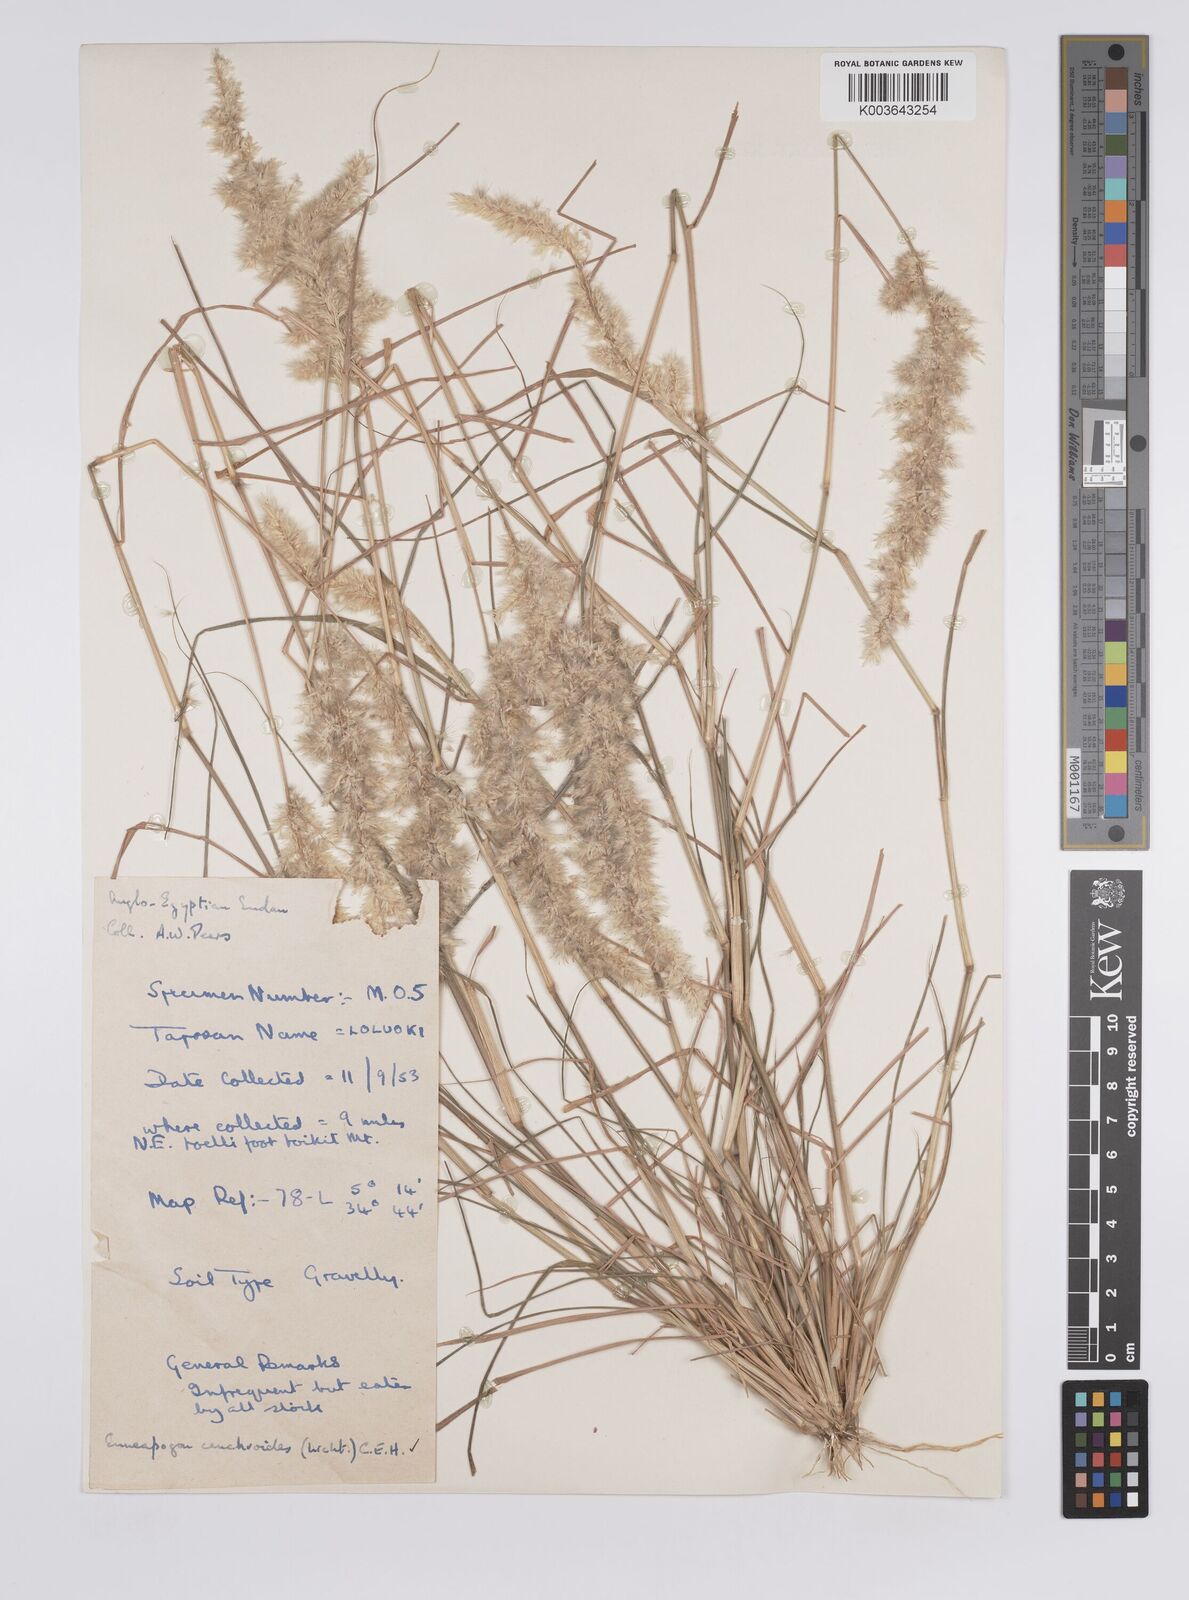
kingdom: Plantae
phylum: Tracheophyta
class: Liliopsida
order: Poales
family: Poaceae
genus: Enneapogon
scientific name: Enneapogon cenchroides
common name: Soft feather pappusgrass
